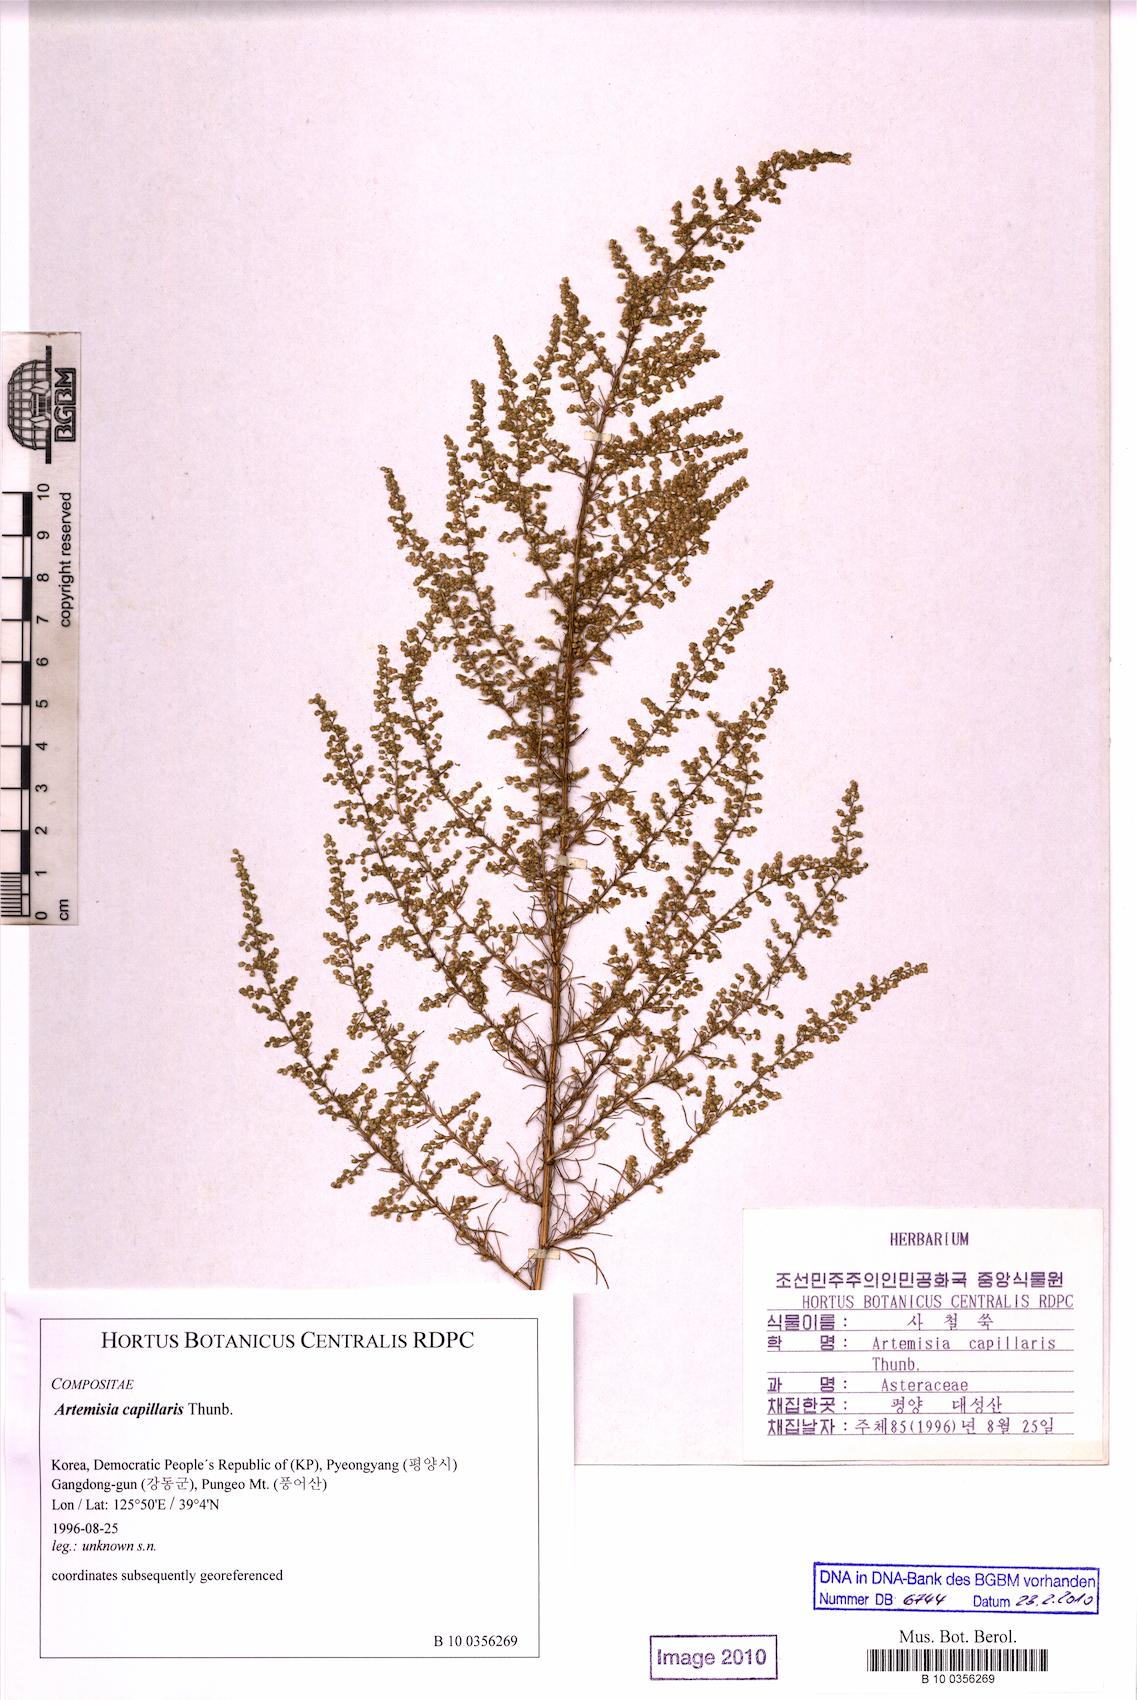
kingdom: Plantae
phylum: Tracheophyta
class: Magnoliopsida
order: Asterales
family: Asteraceae
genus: Artemisia
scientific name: Artemisia capillaris
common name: Yin-chen wormwood
